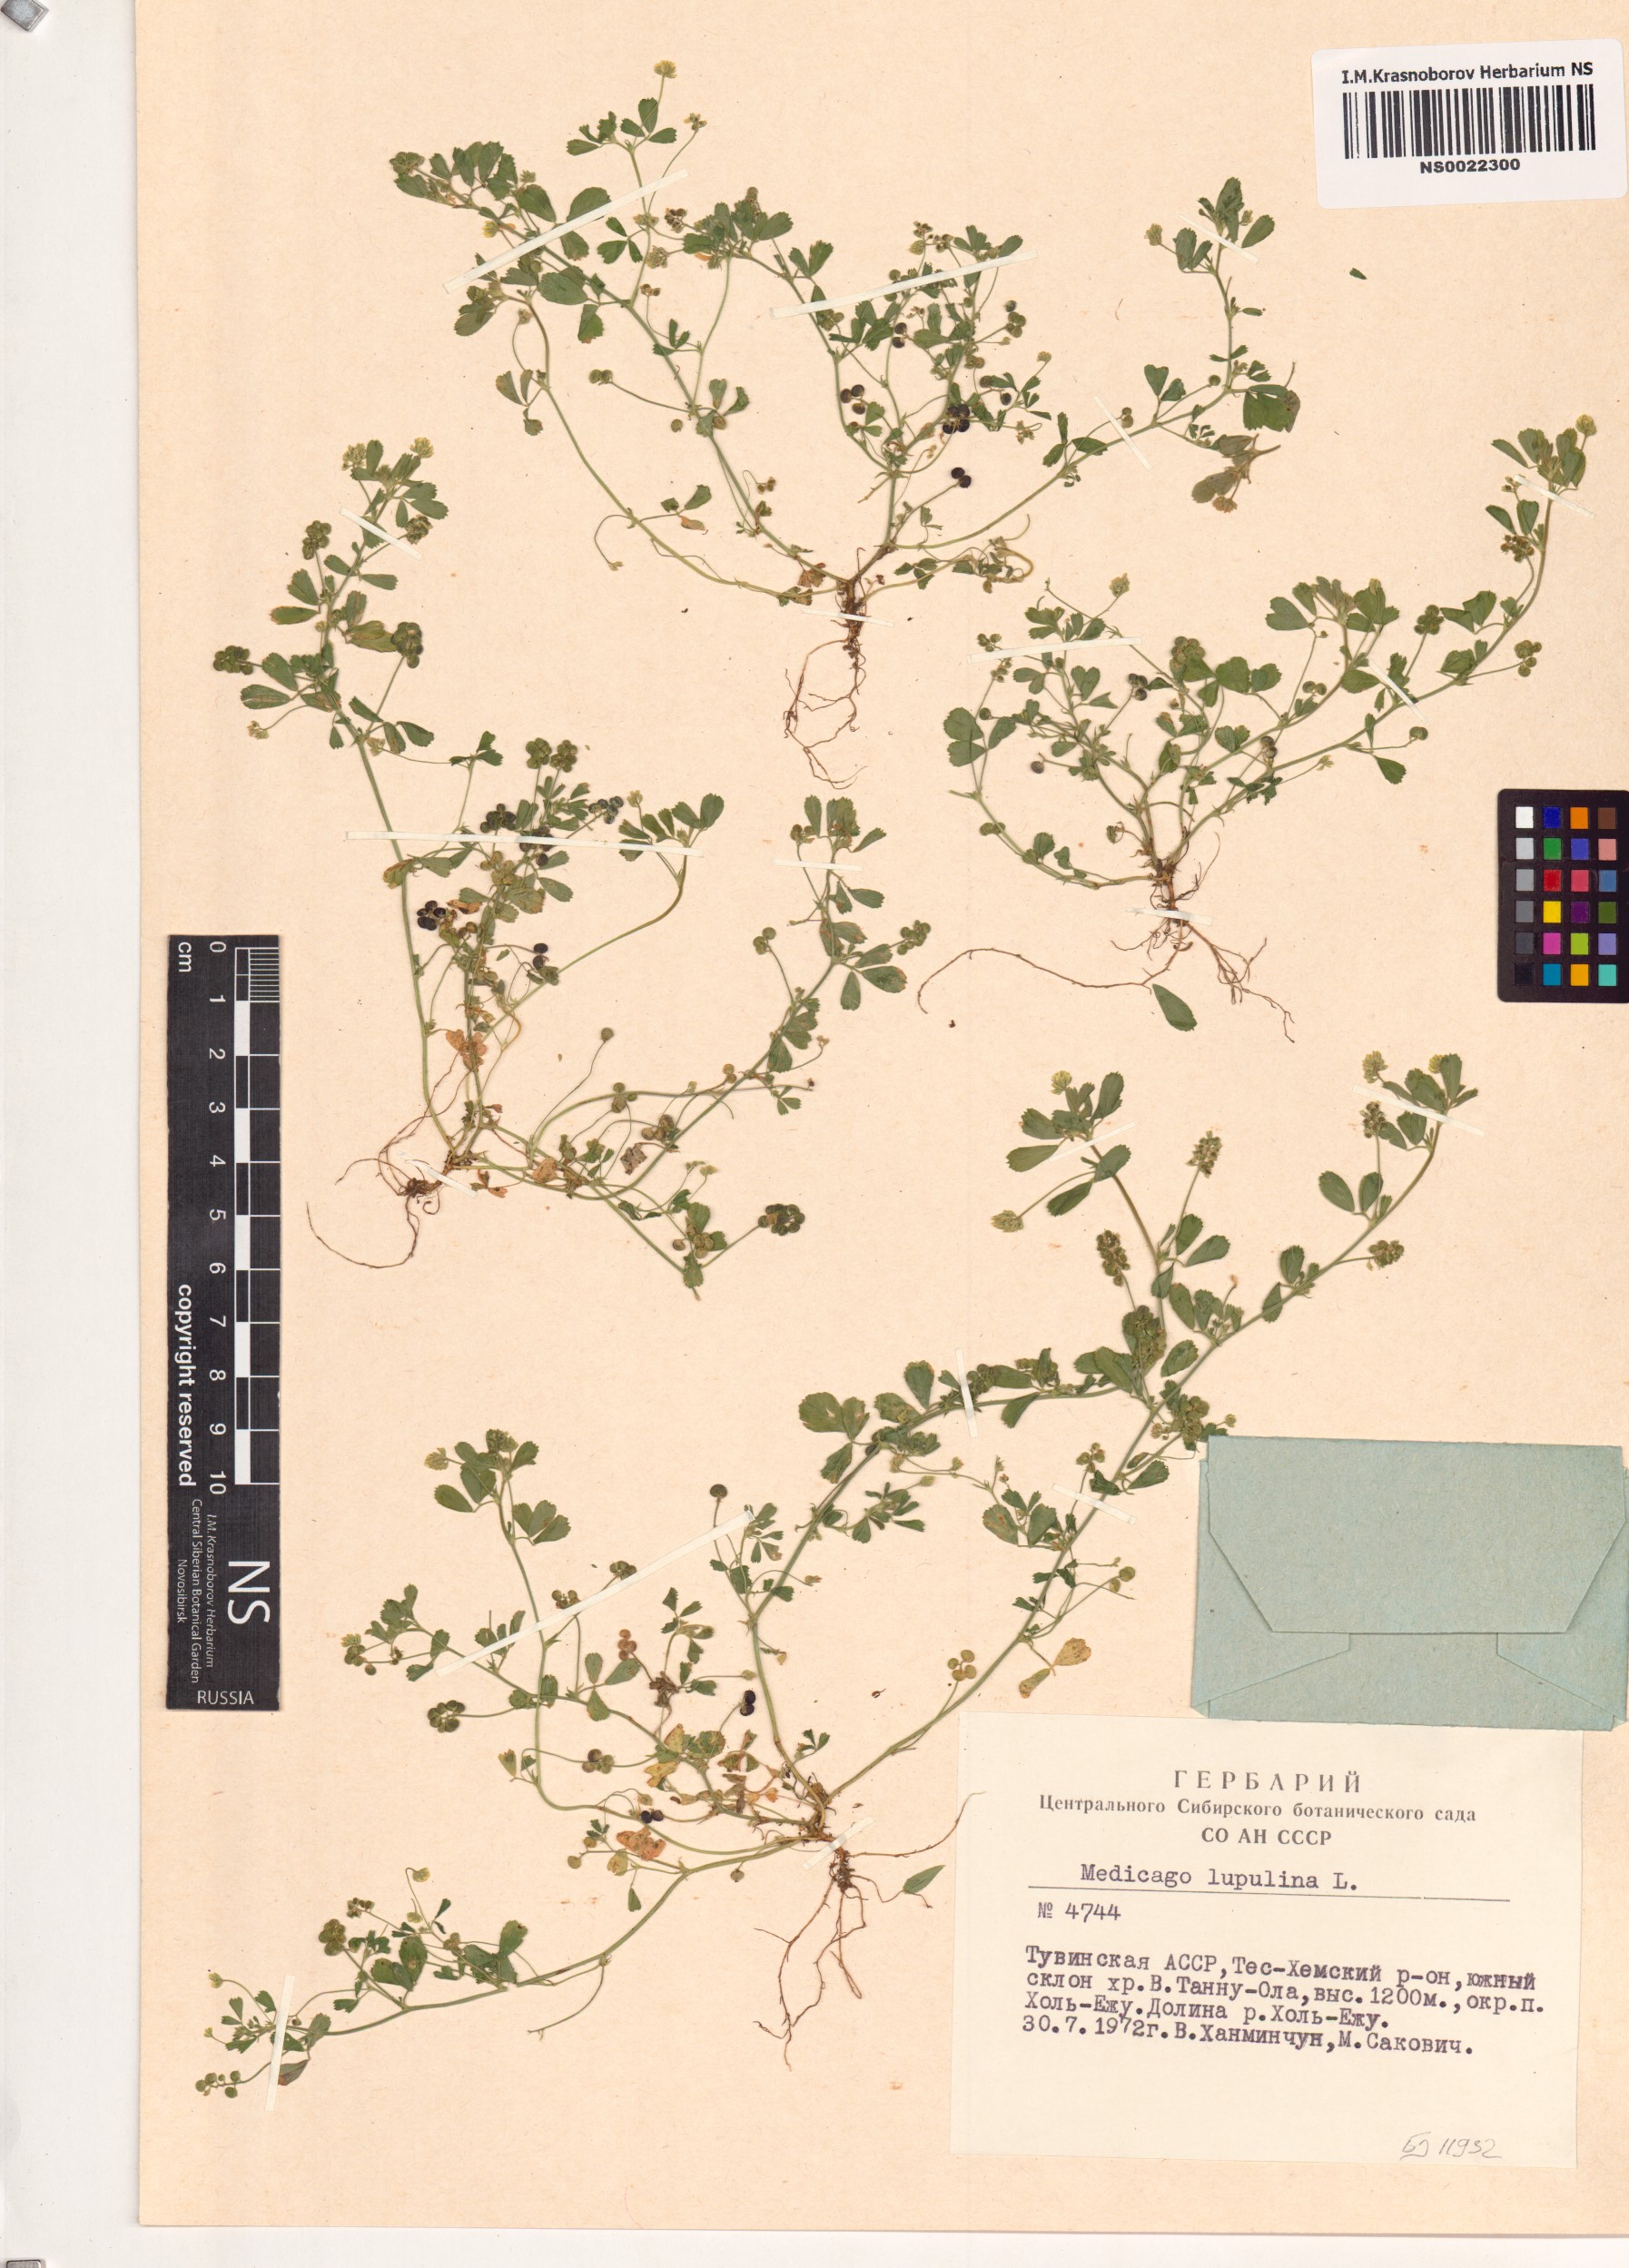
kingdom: Plantae
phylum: Tracheophyta
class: Magnoliopsida
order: Fabales
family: Fabaceae
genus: Medicago
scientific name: Medicago lupulina
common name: Black medick
